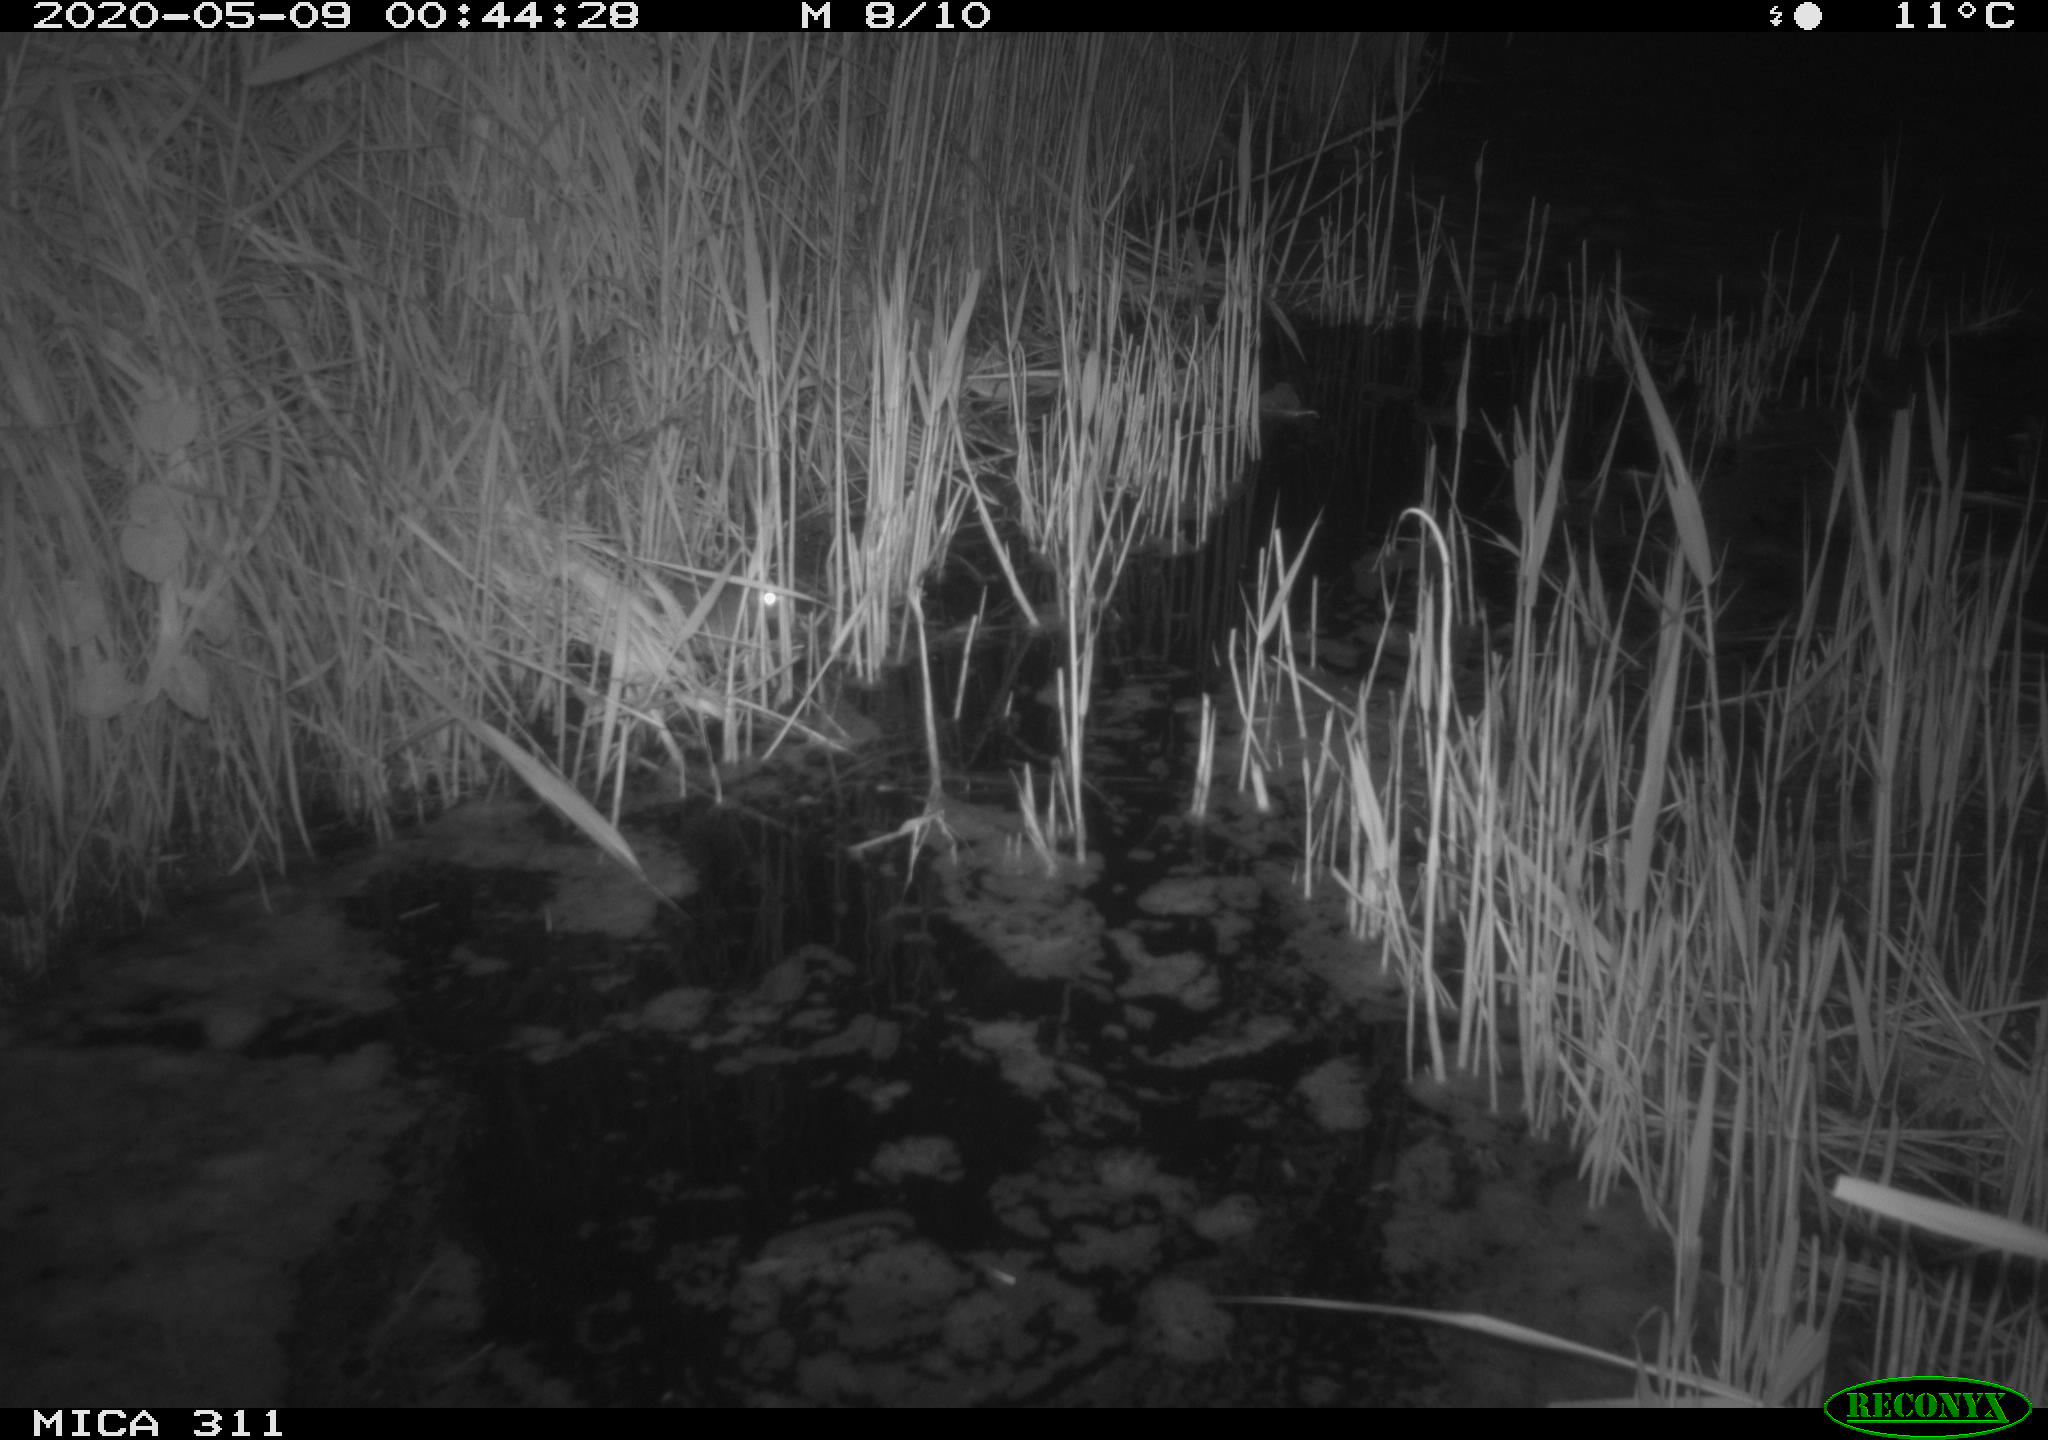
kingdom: Animalia
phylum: Chordata
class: Mammalia
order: Rodentia
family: Muridae
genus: Rattus
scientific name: Rattus norvegicus
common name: Brown rat
